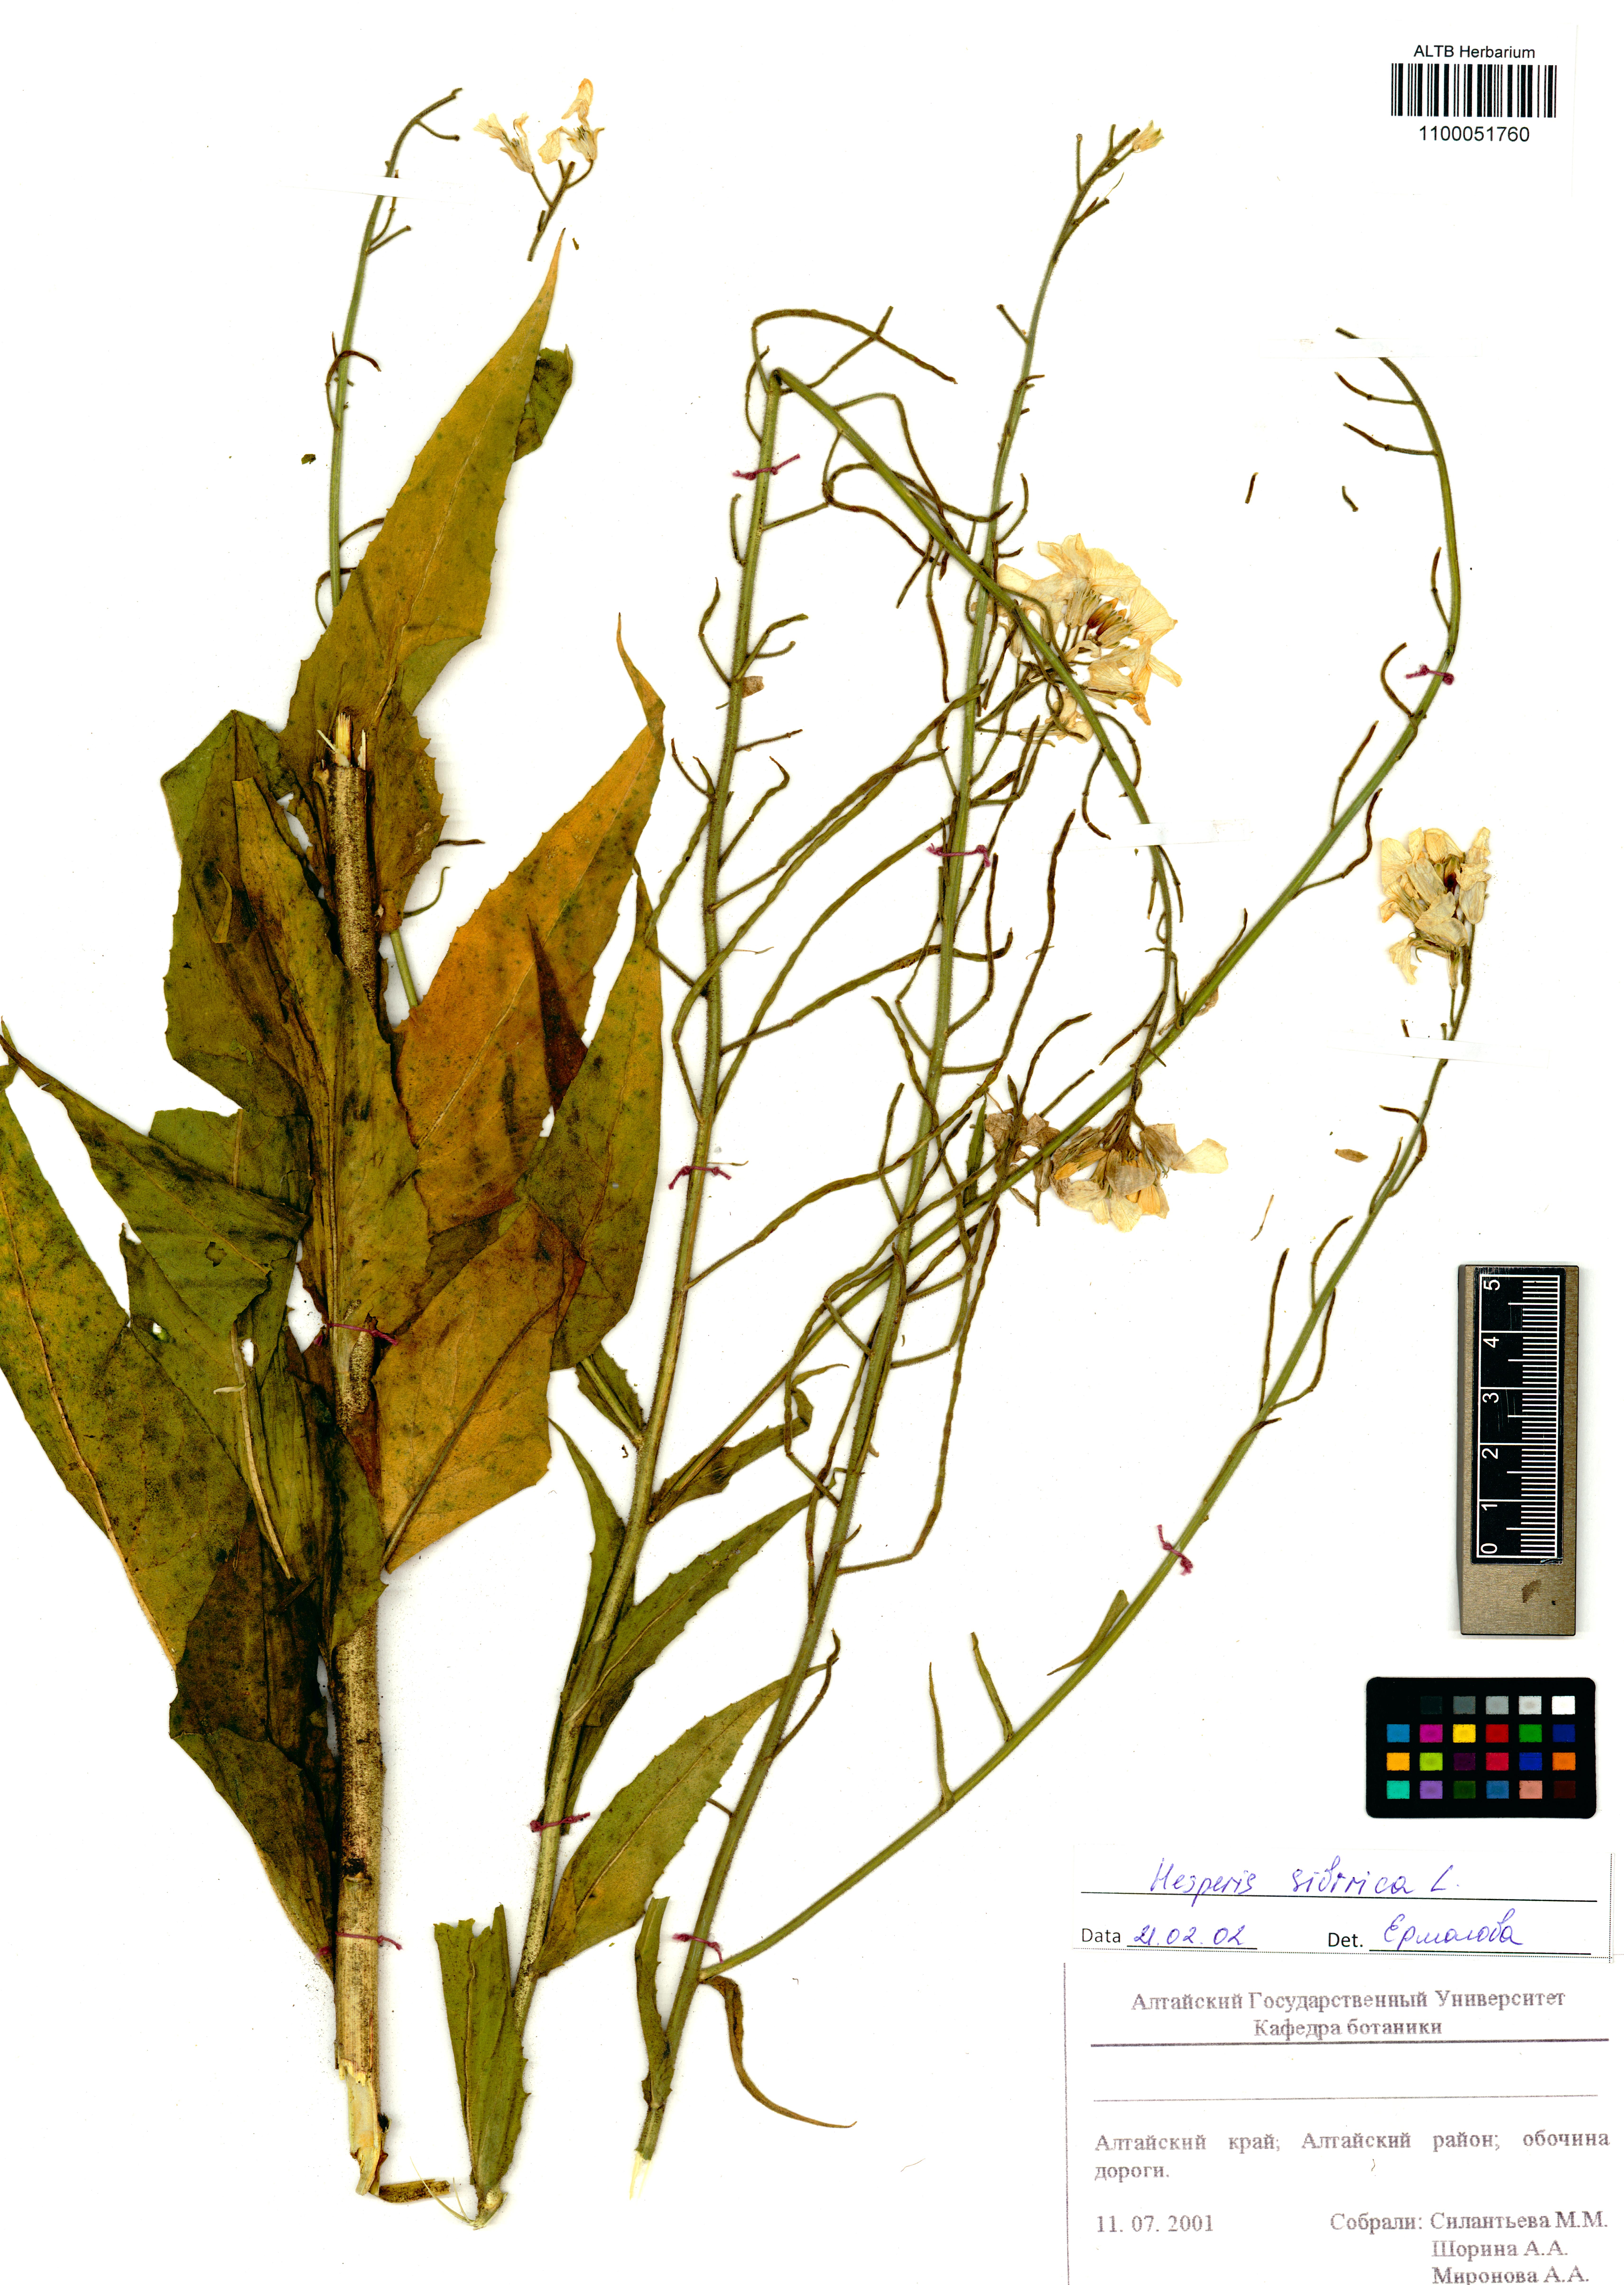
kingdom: Plantae
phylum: Tracheophyta
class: Magnoliopsida
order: Brassicales
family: Brassicaceae
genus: Hesperis
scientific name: Hesperis sibirica
